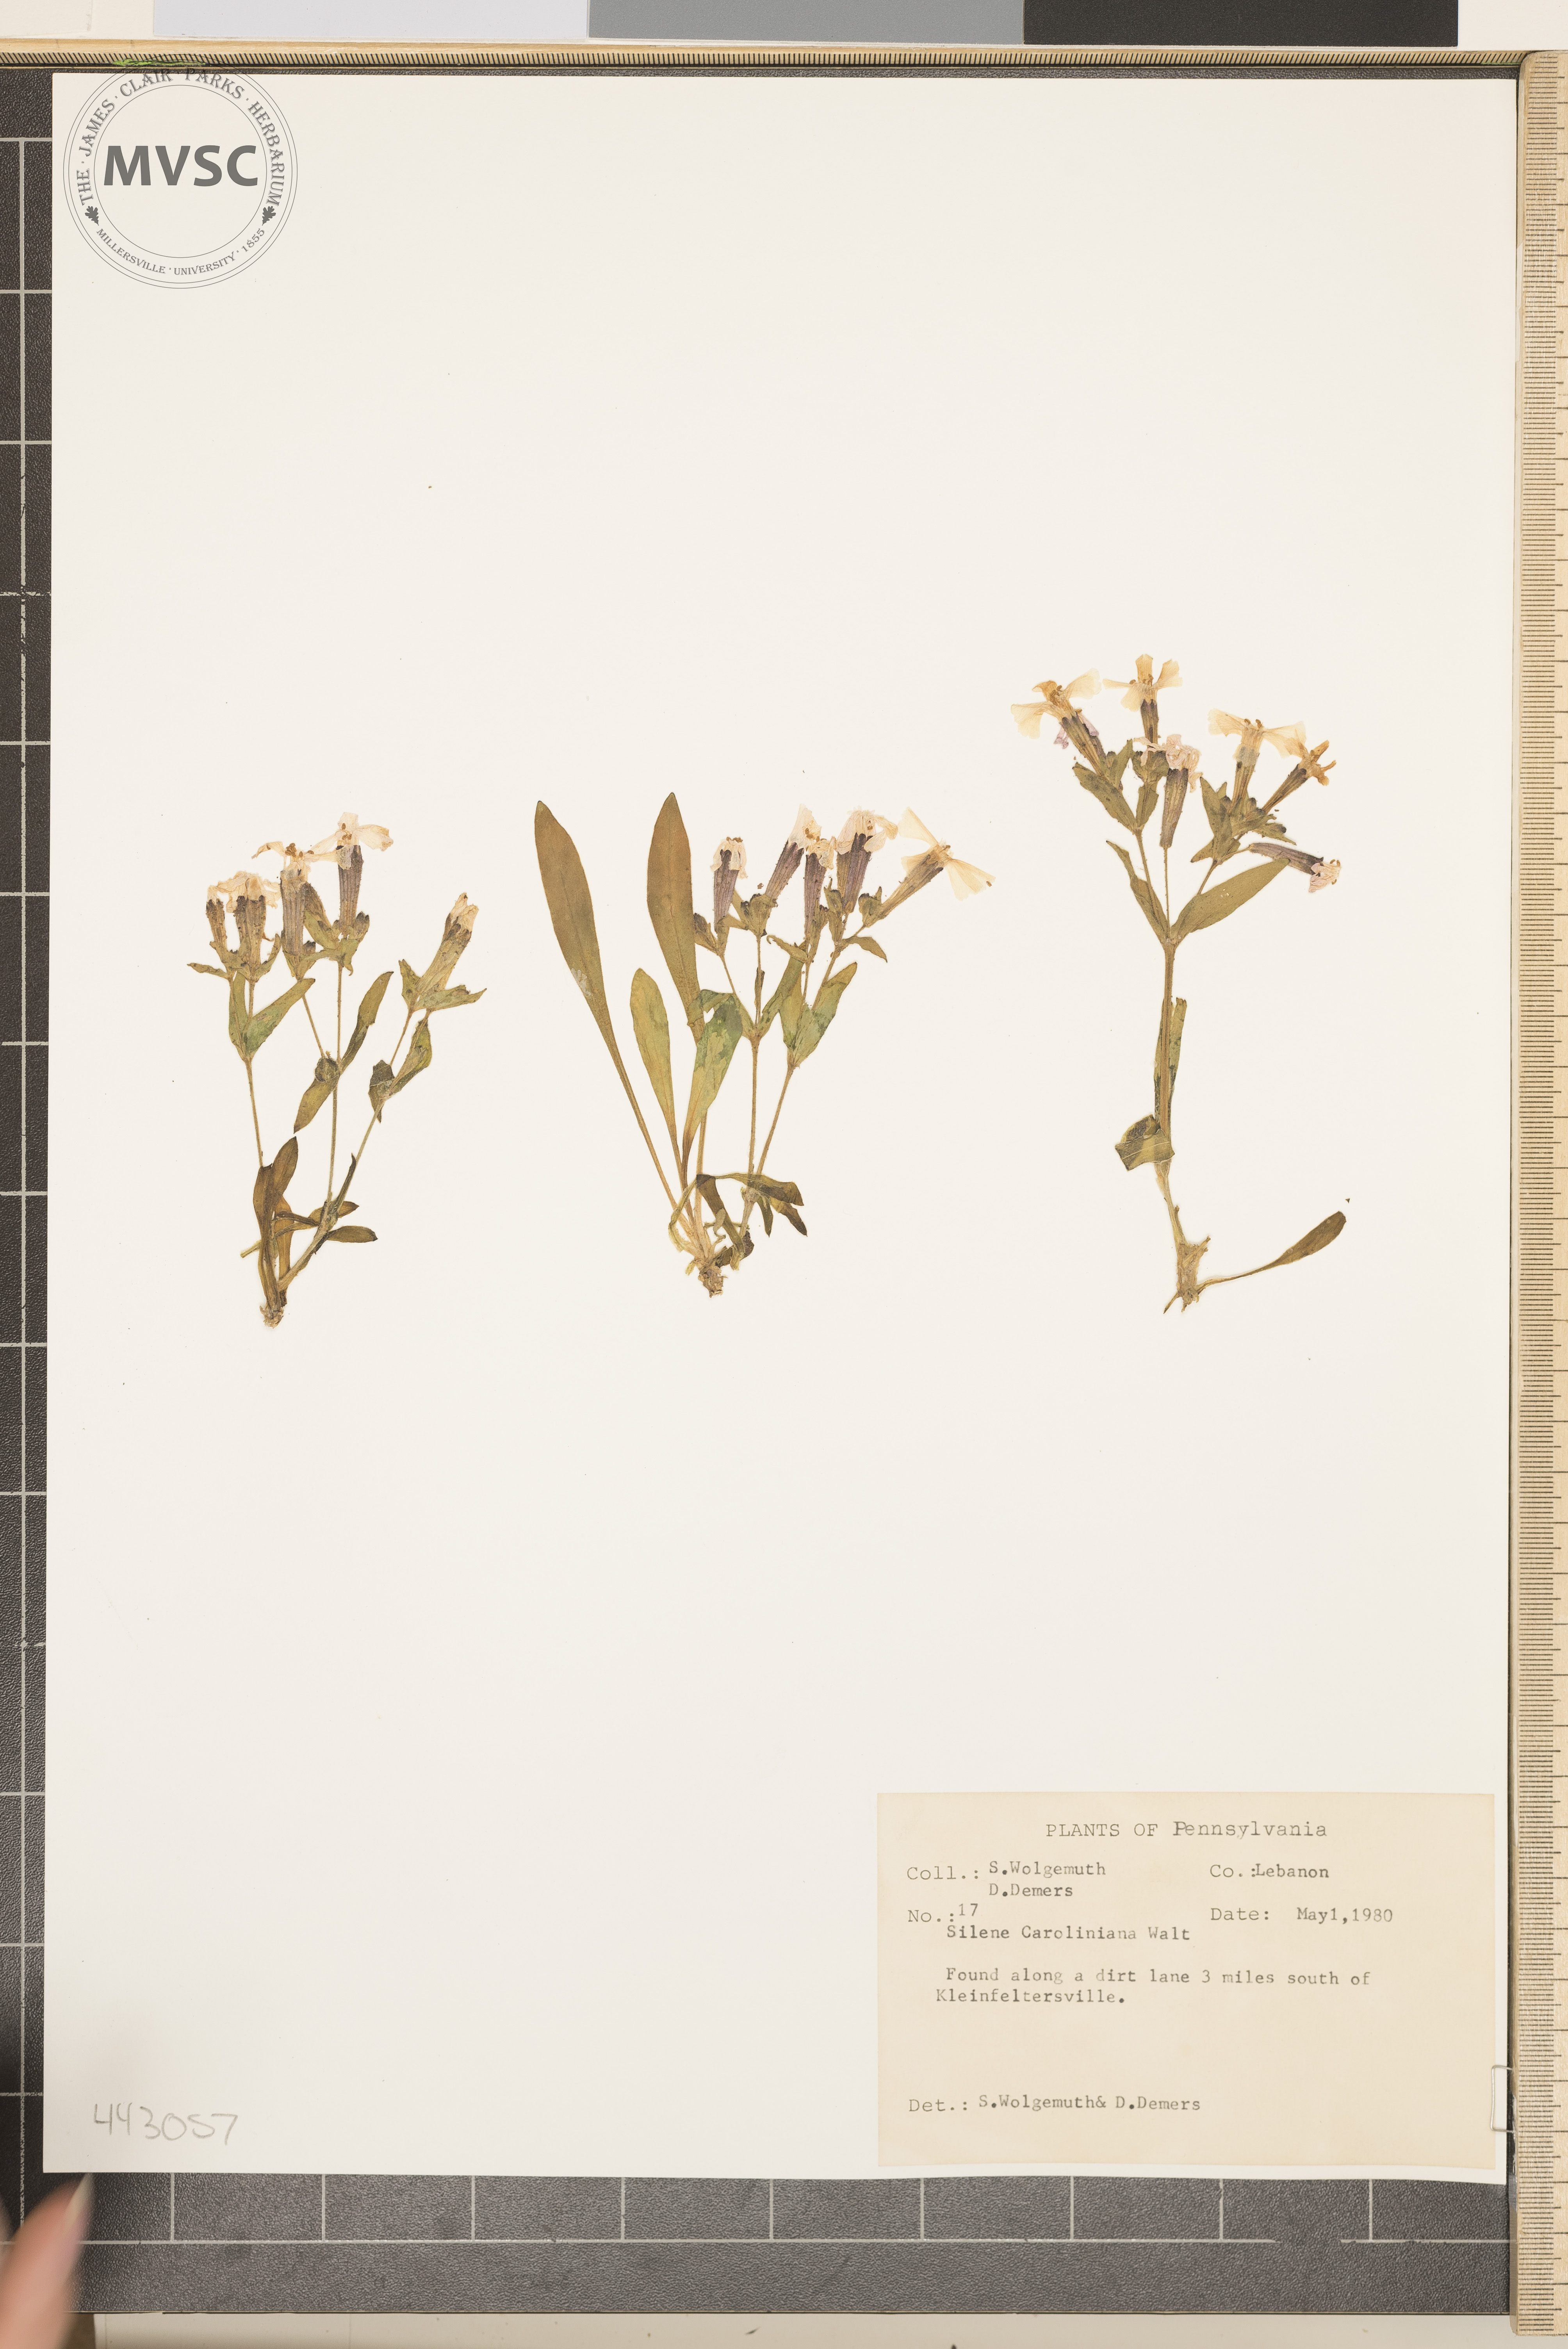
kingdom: Plantae
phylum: Tracheophyta
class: Magnoliopsida
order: Caryophyllales
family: Caryophyllaceae
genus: Silene
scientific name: Silene caroliniana
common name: Sticky catchfly
